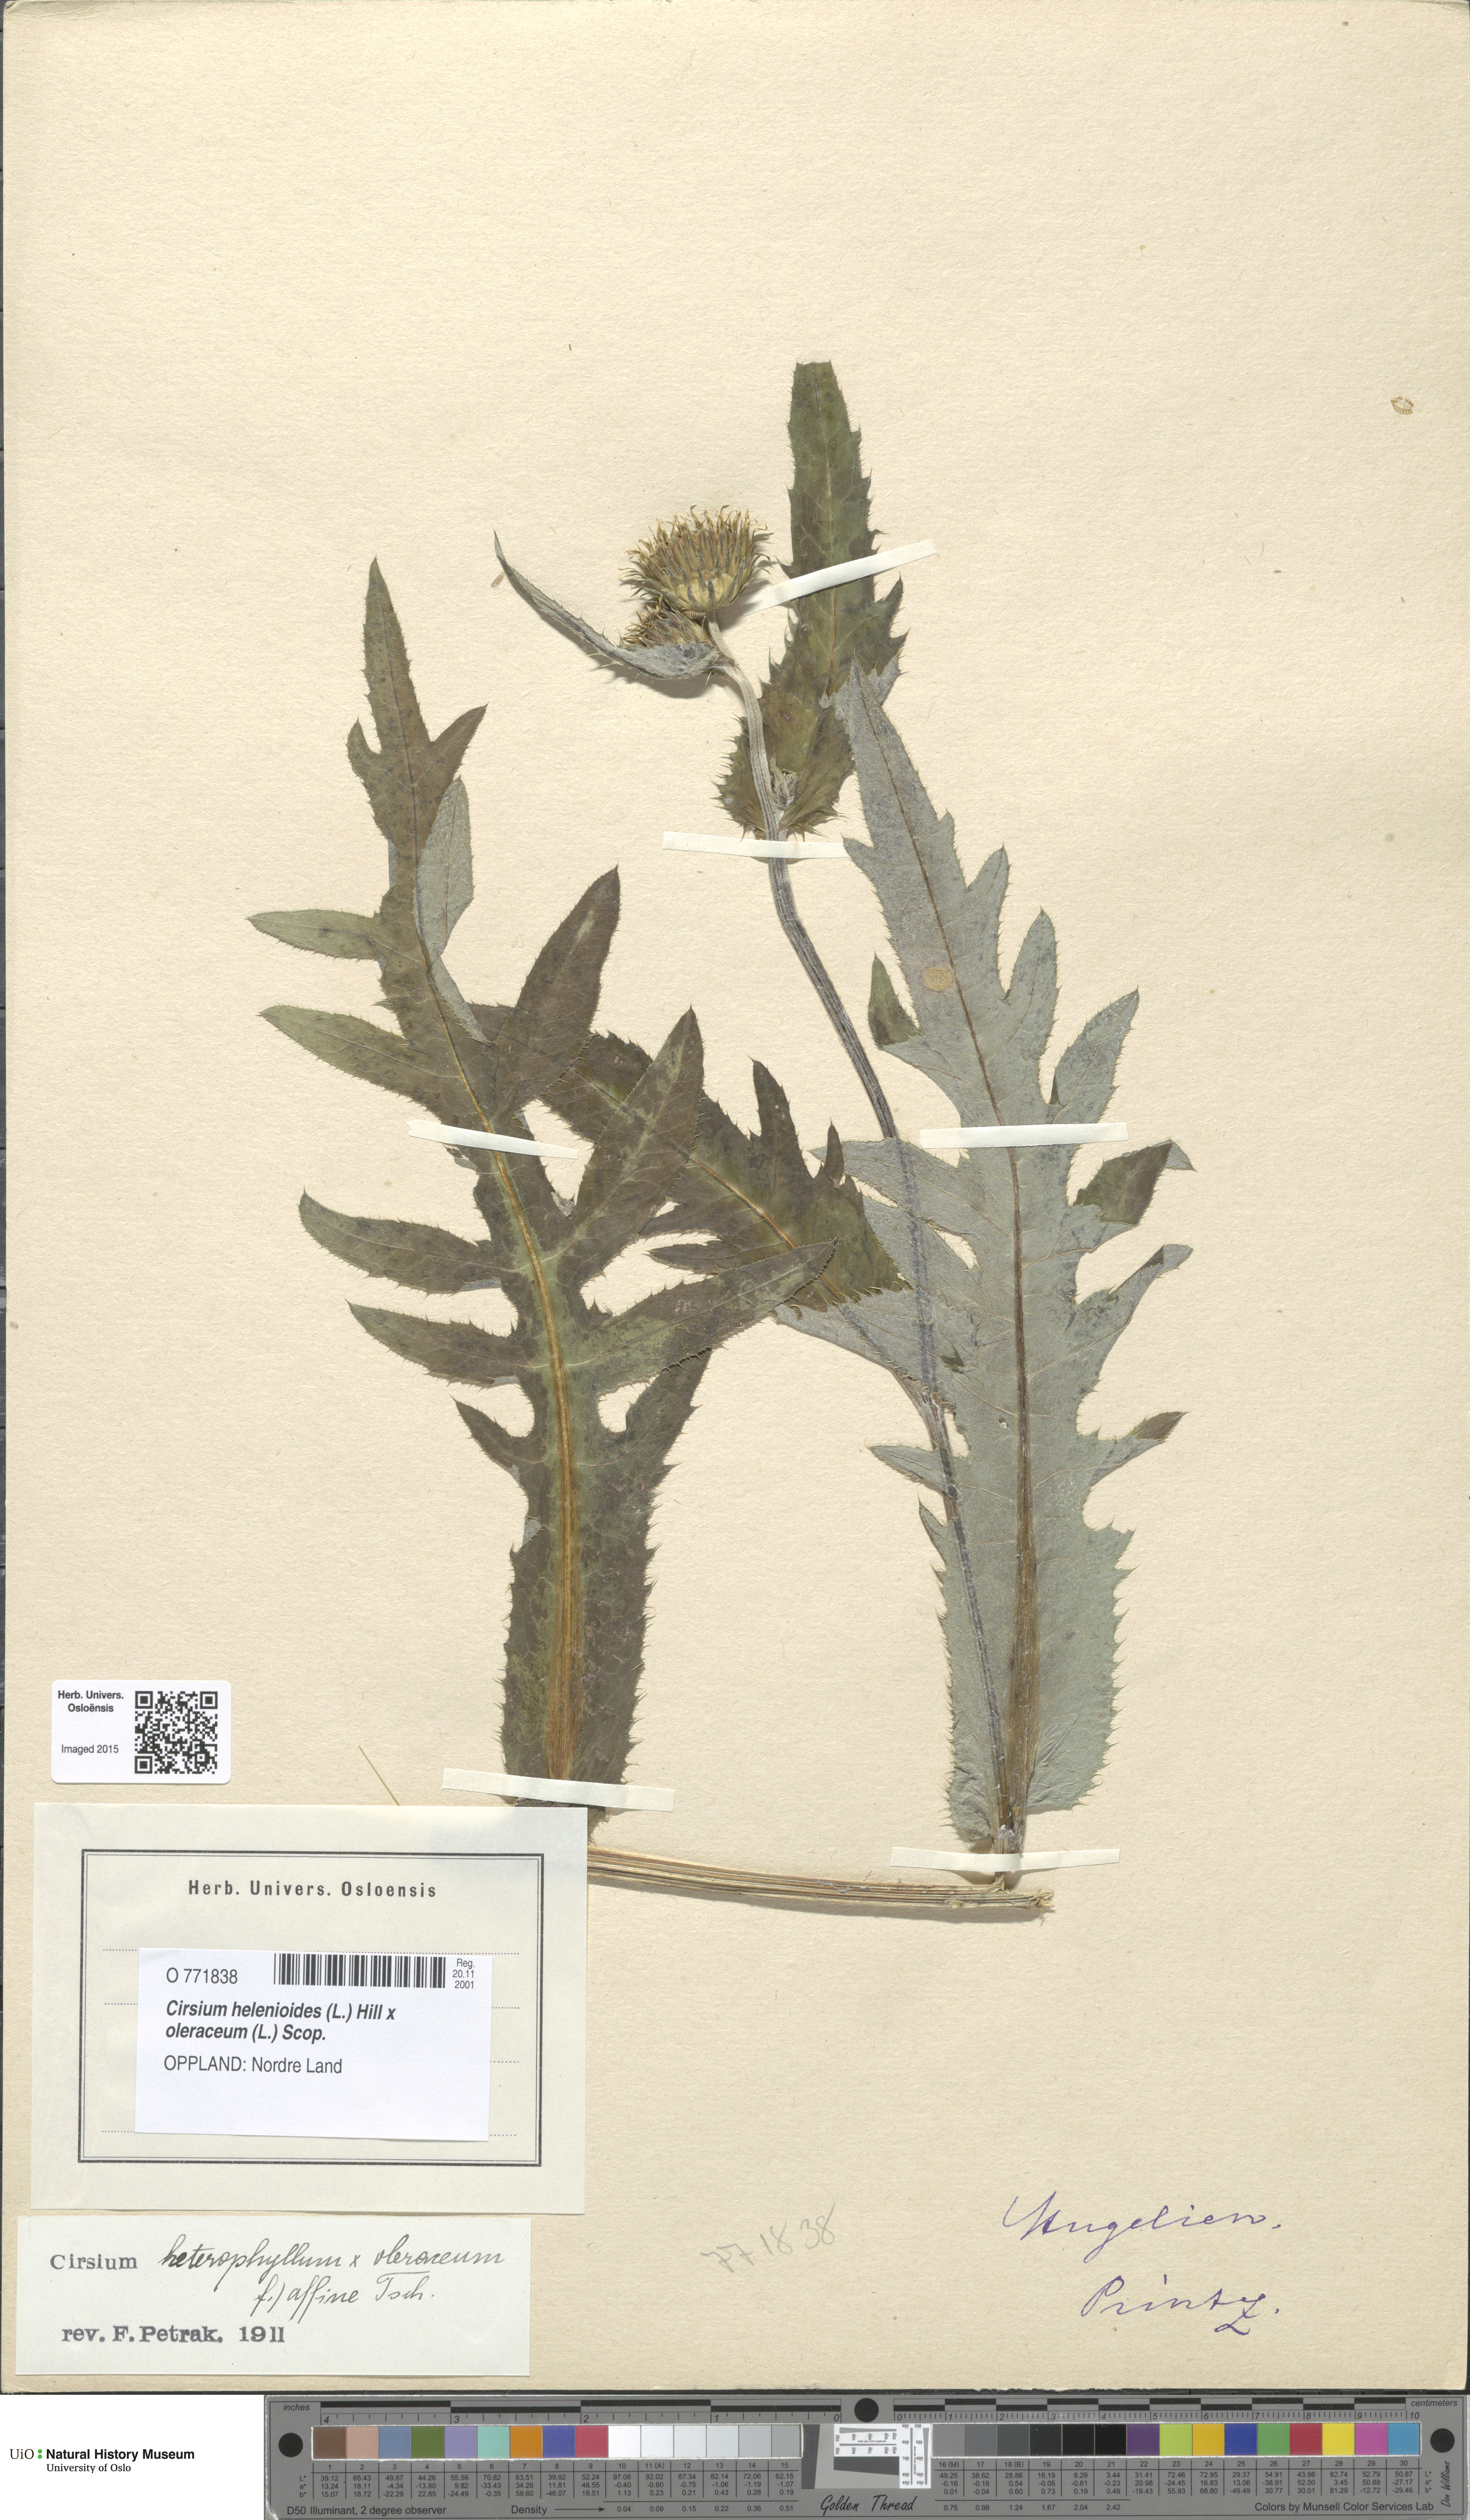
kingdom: Plantae
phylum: Tracheophyta
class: Magnoliopsida
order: Asterales
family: Asteraceae
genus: Cirsium
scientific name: Cirsium
